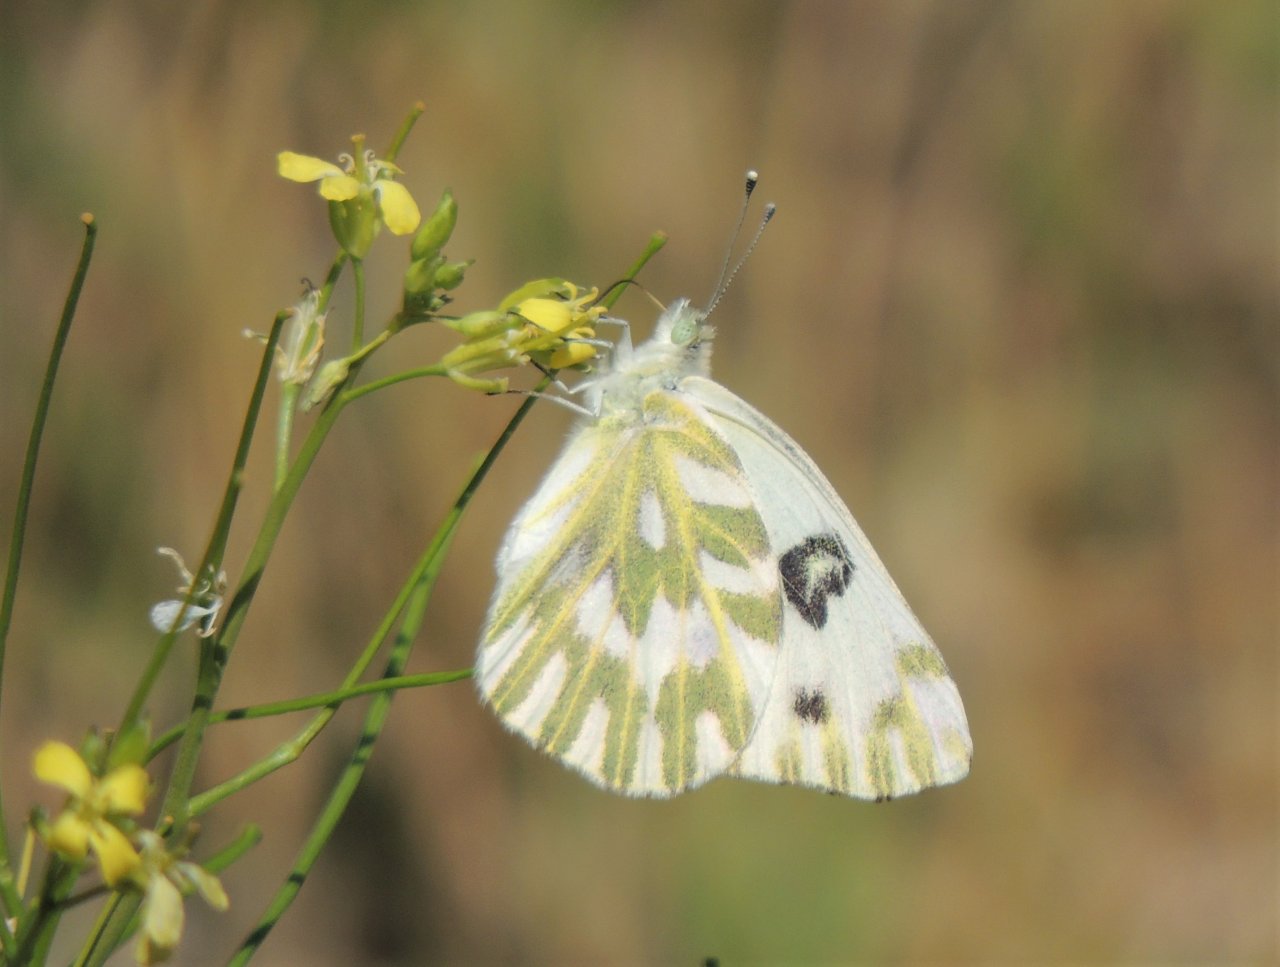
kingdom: Animalia
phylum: Arthropoda
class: Insecta
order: Lepidoptera
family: Pieridae
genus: Pontia
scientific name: Pontia beckerii
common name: Becker's White
